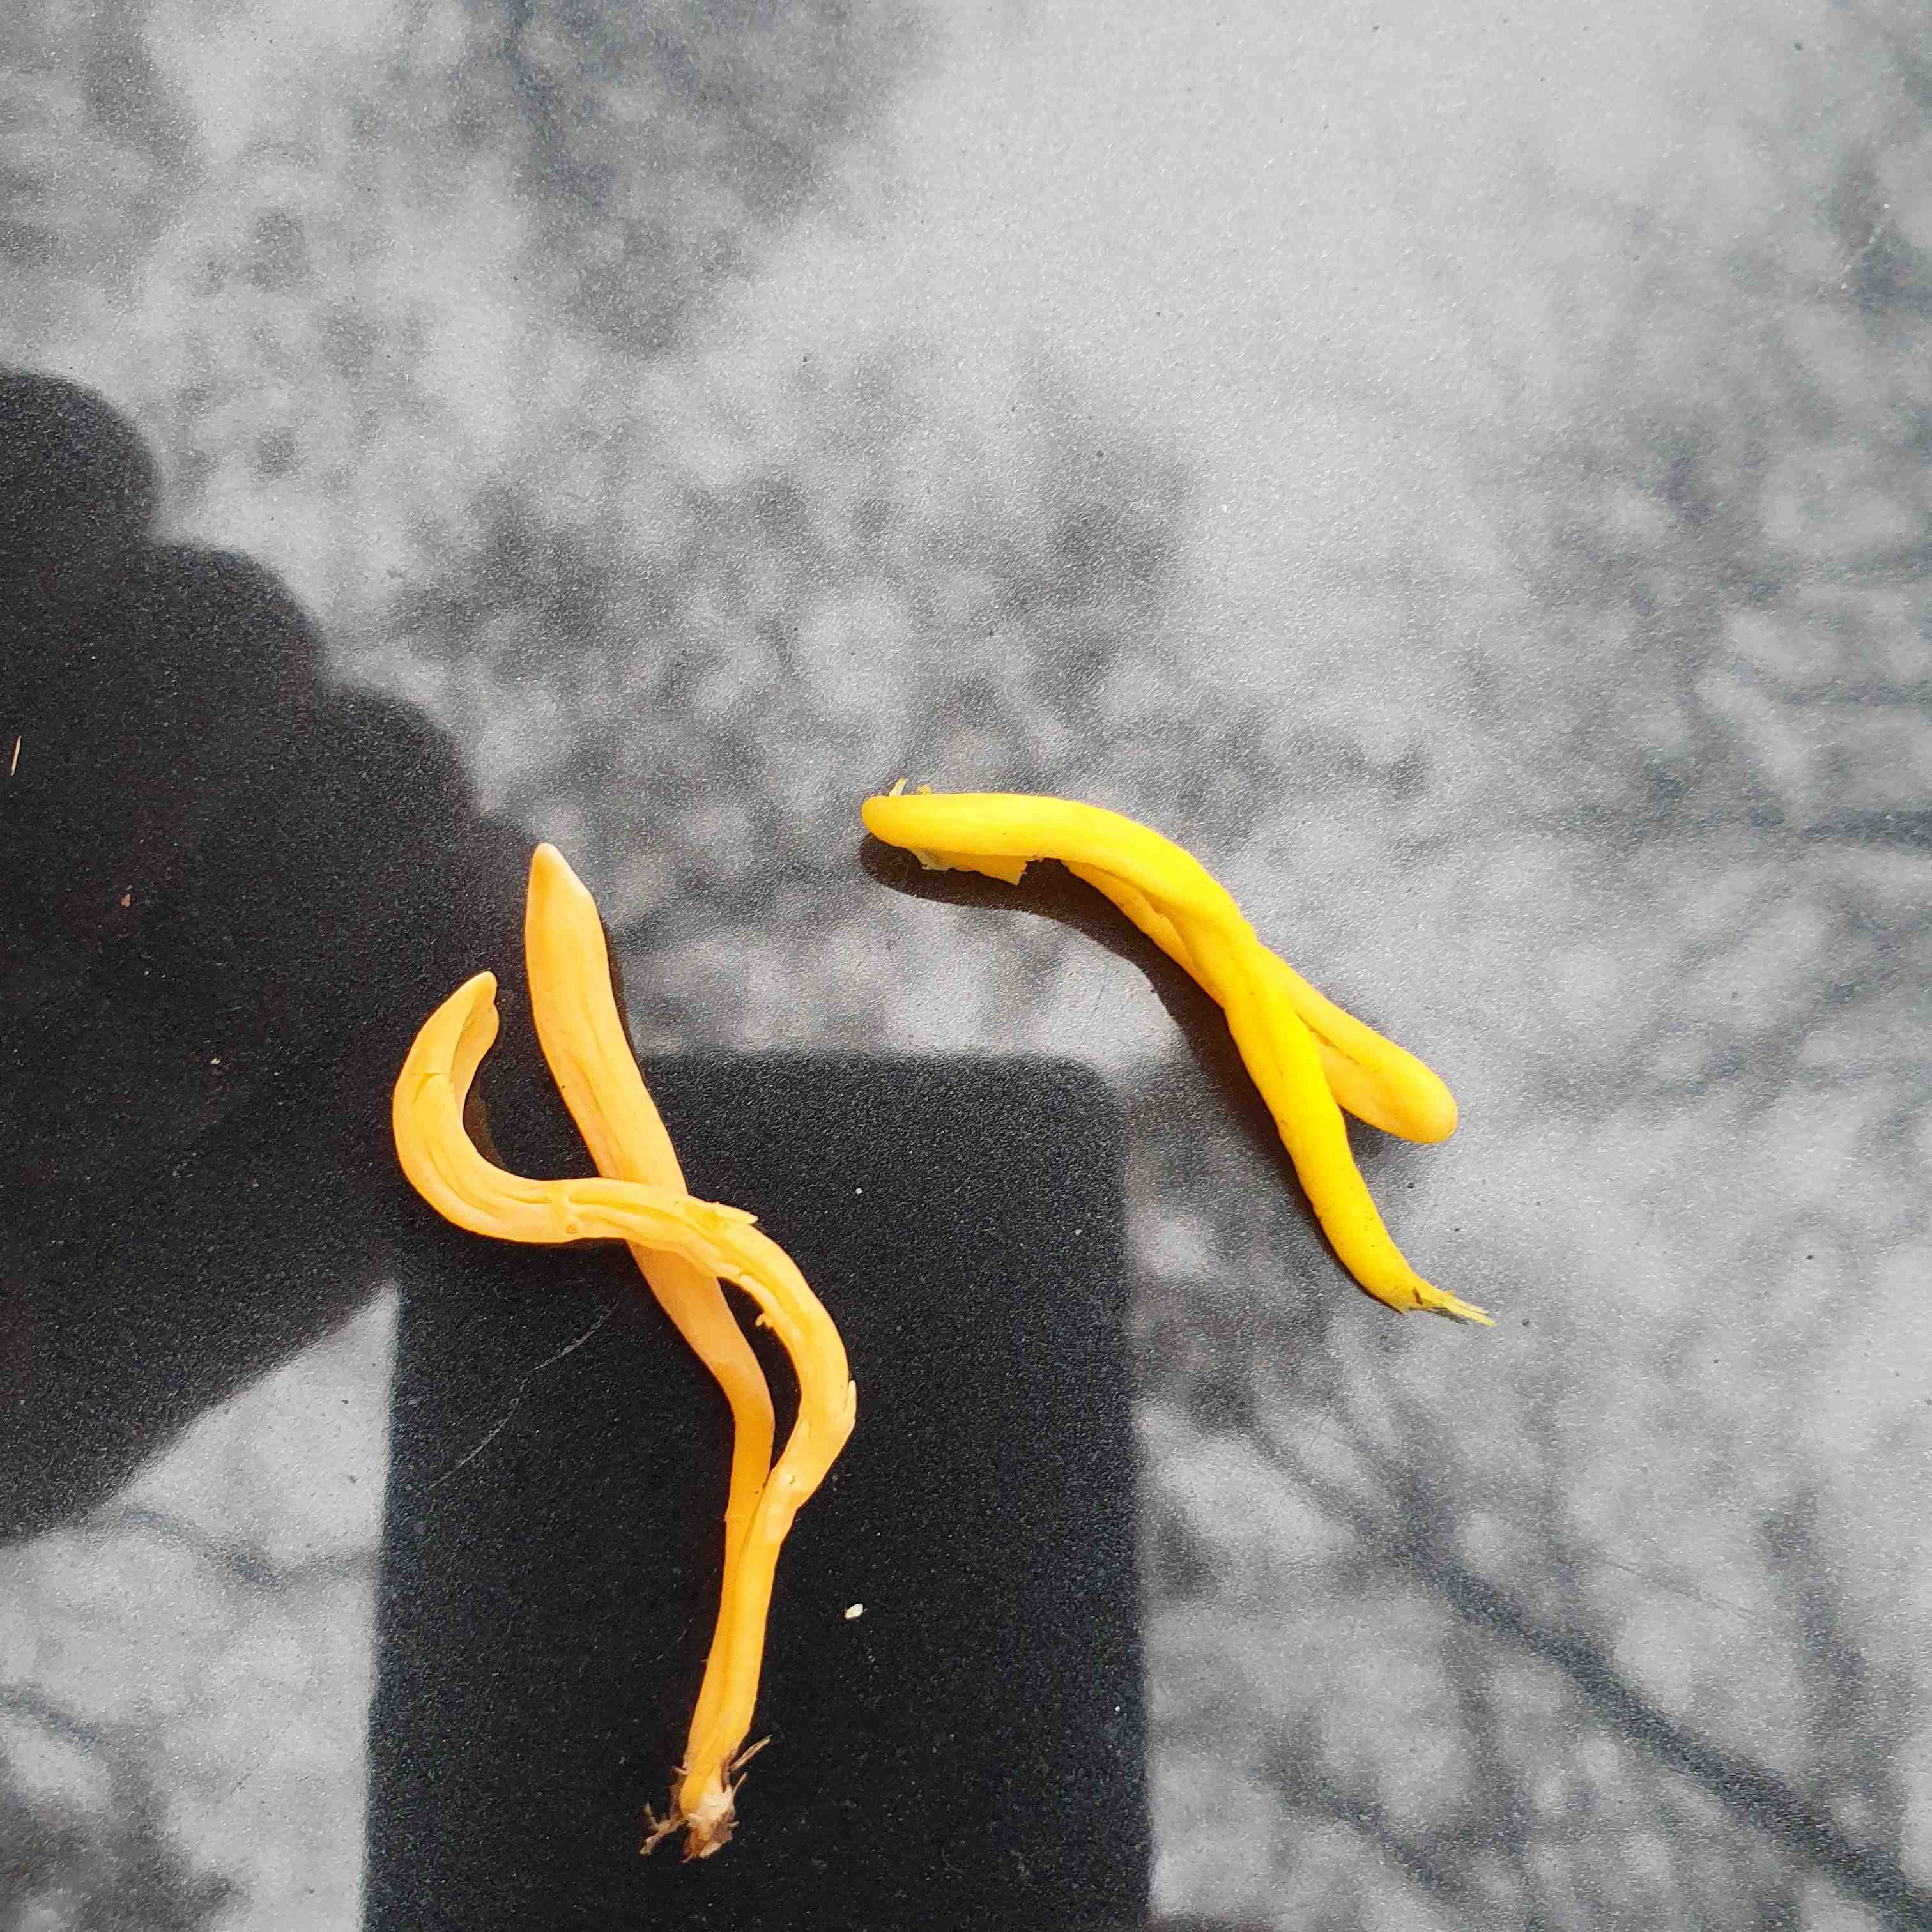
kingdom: Fungi
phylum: Basidiomycota
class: Agaricomycetes
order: Agaricales
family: Clavariaceae
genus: Clavulinopsis
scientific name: Clavulinopsis
